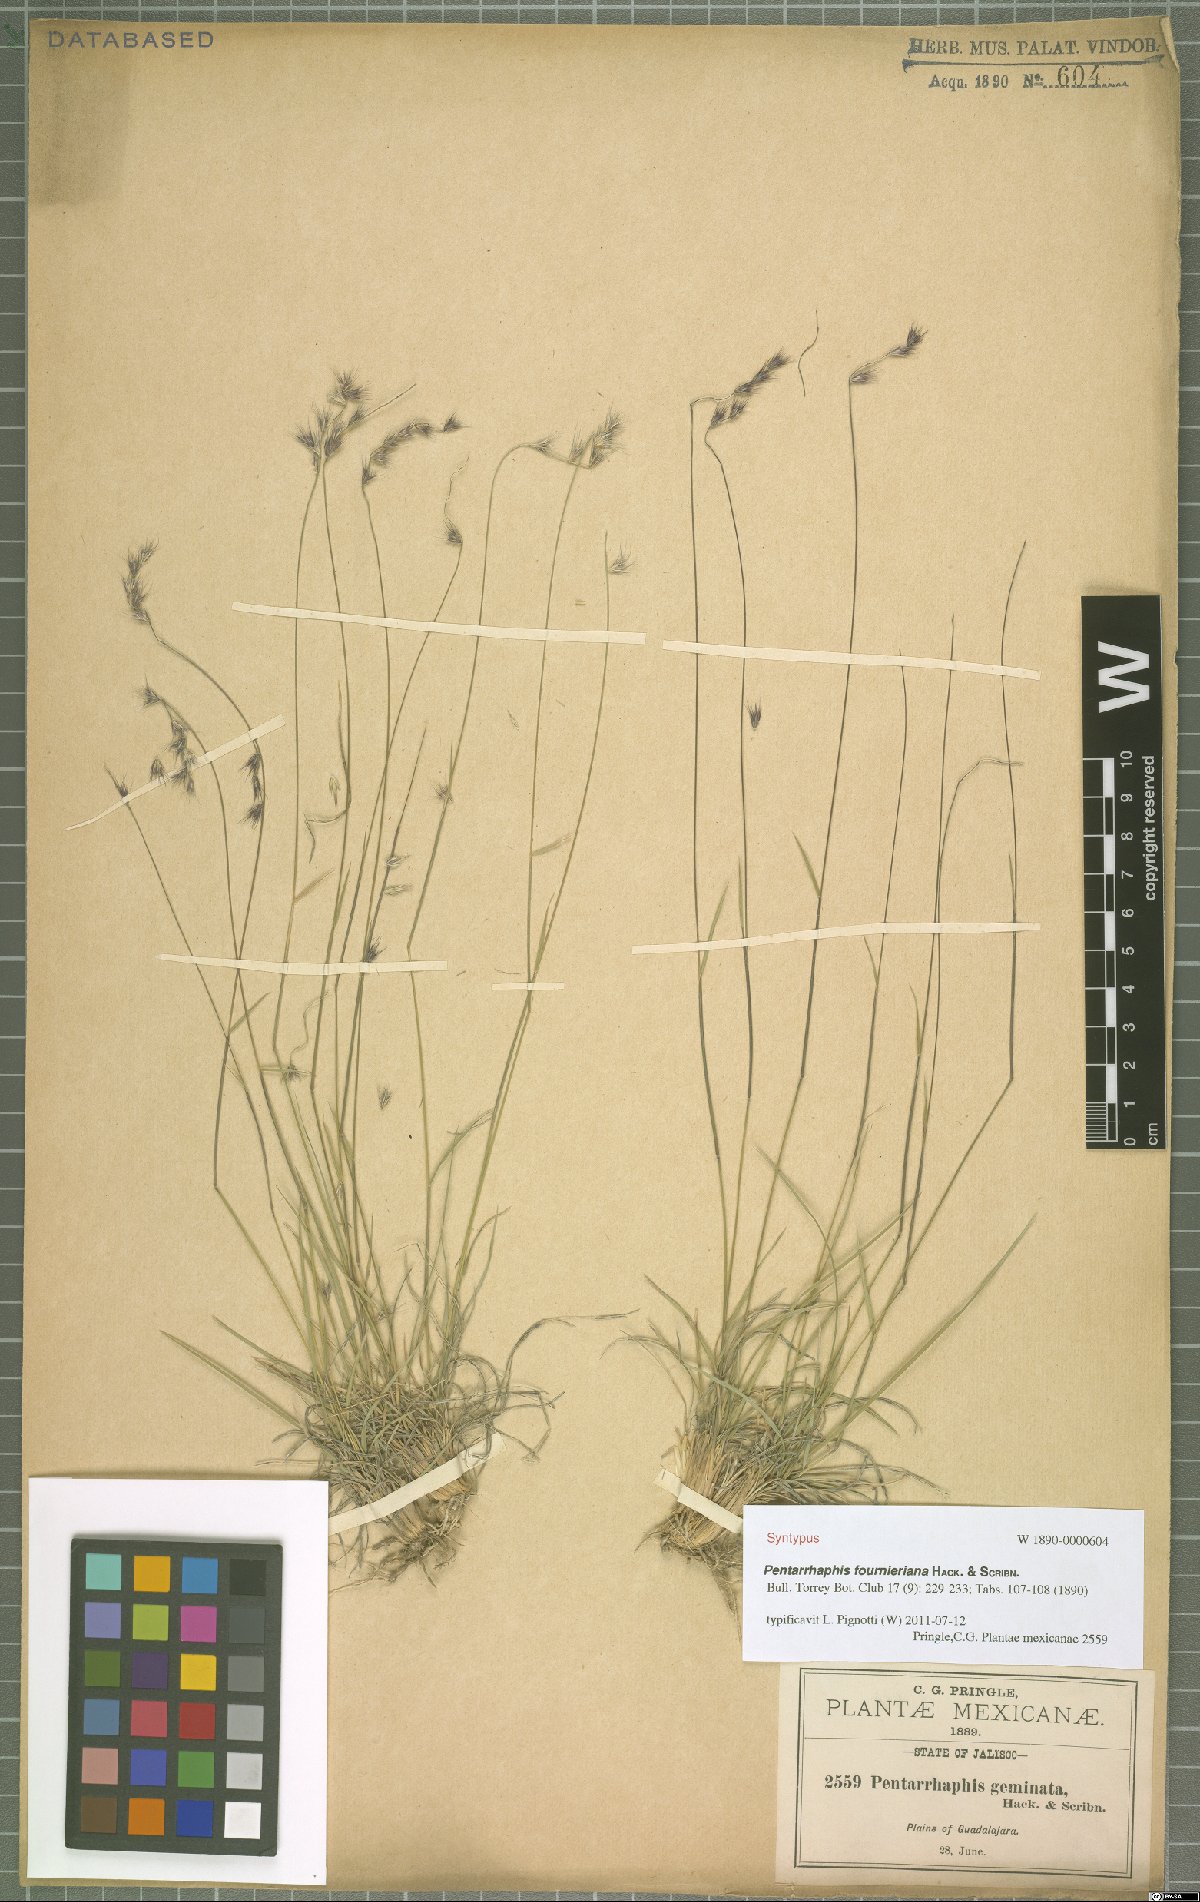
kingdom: Plantae
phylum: Tracheophyta
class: Liliopsida
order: Poales
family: Poaceae
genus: Bouteloua
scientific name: Bouteloua Pentarrhaphis fournieriana
